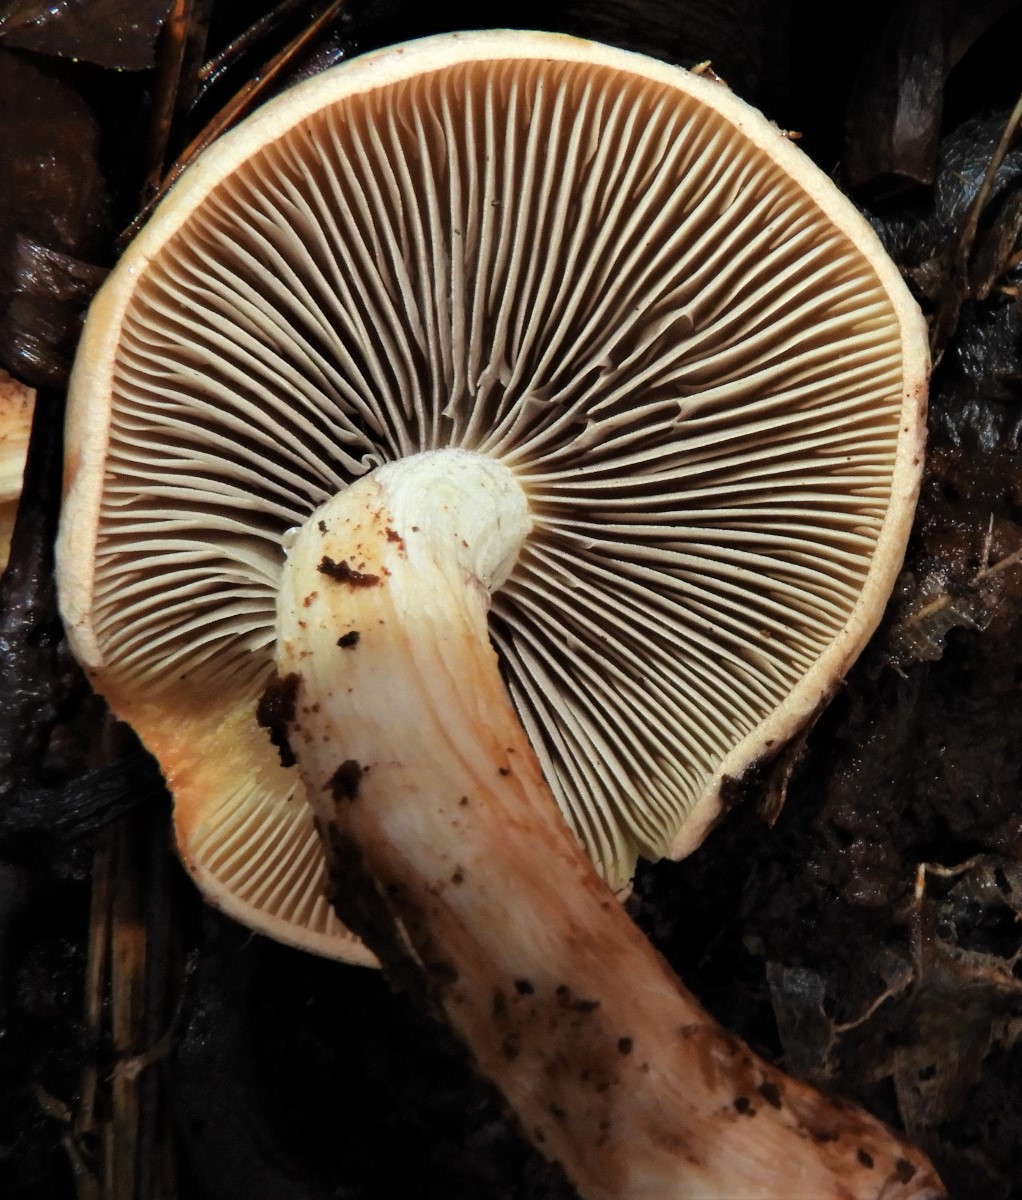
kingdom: Fungi
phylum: Basidiomycota
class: Agaricomycetes
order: Agaricales
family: Strophariaceae
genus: Hypholoma
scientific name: Hypholoma lateritium
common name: teglrød svovlhat
